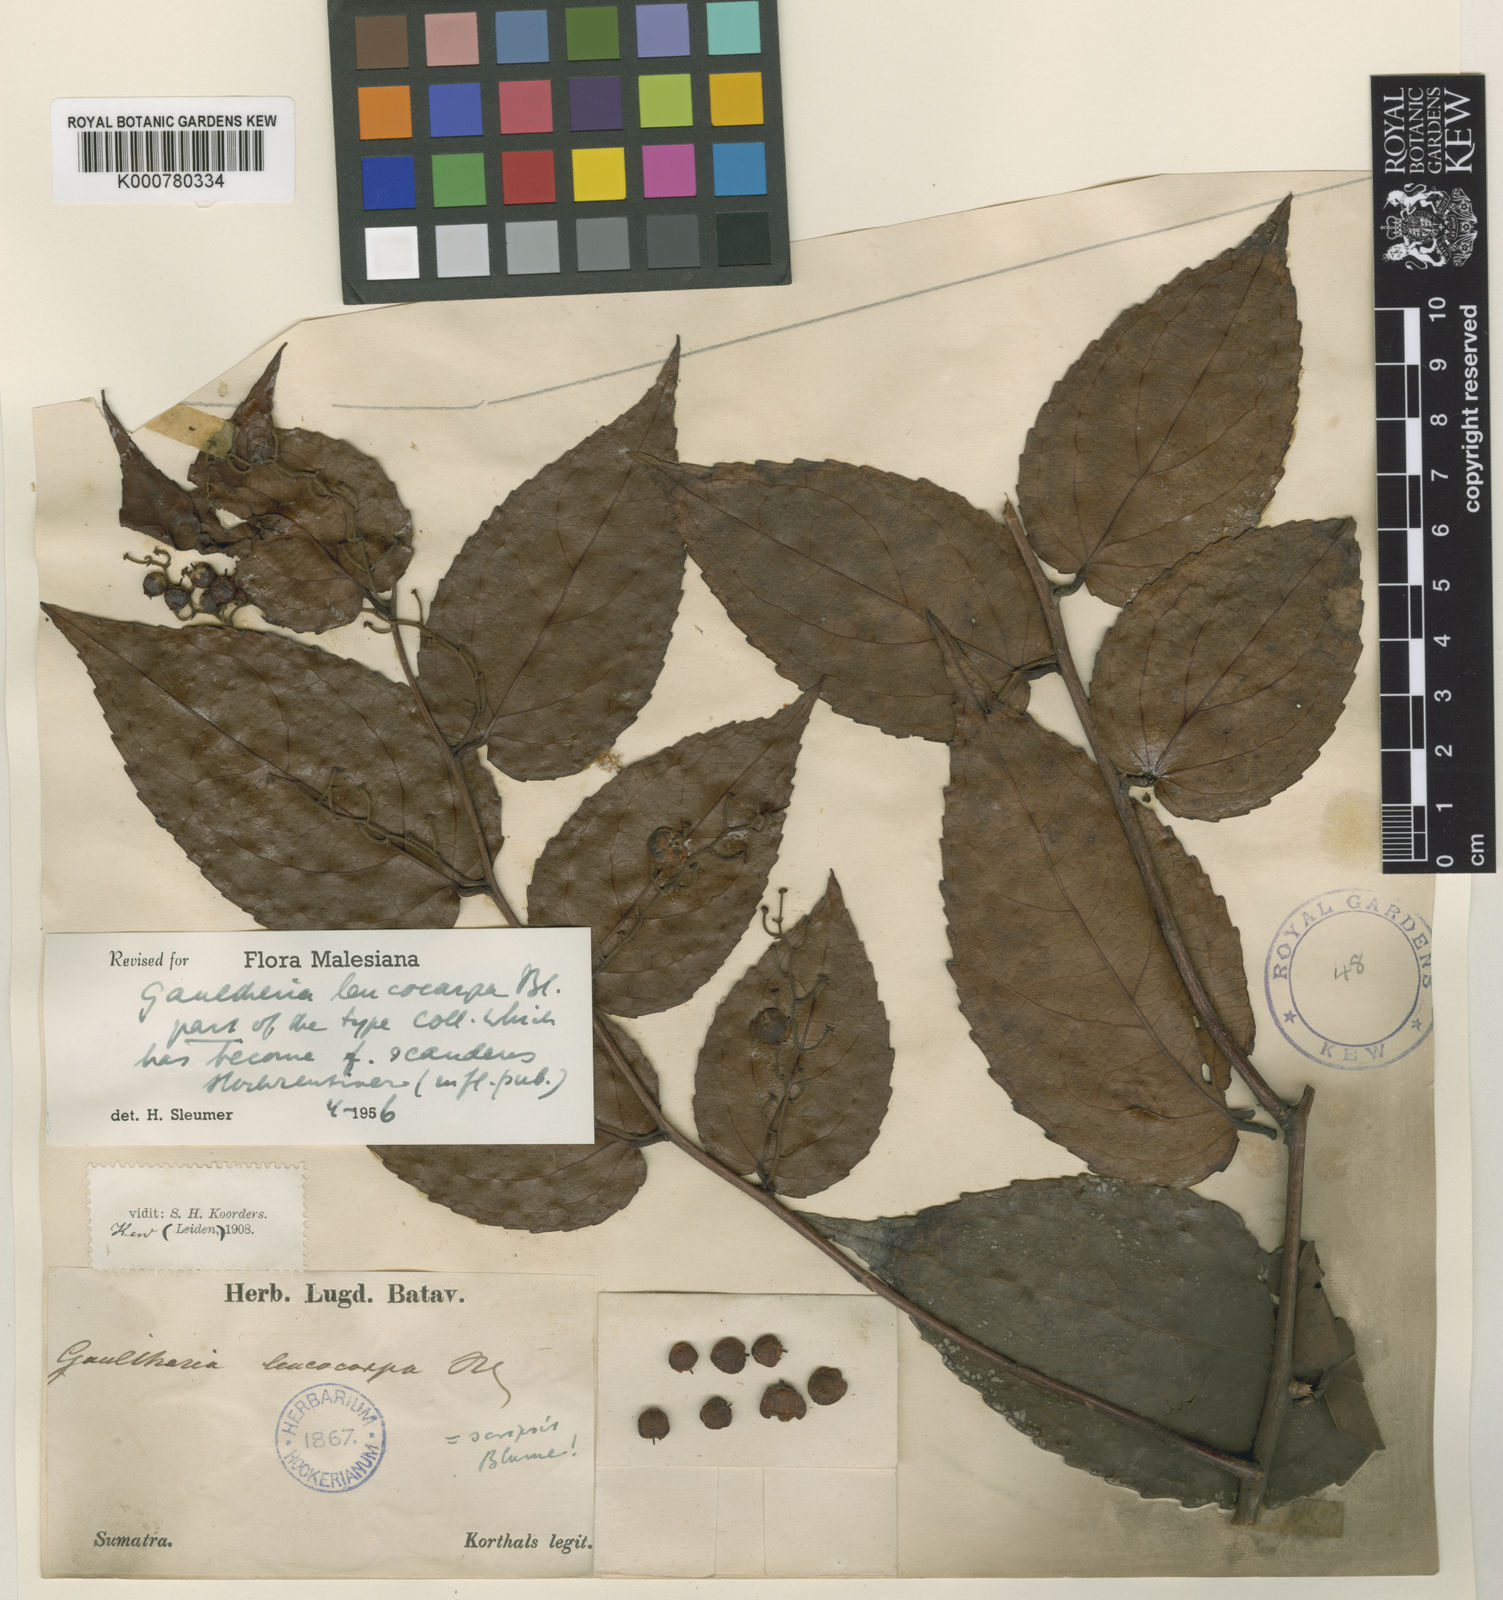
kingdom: Plantae
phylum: Tracheophyta
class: Magnoliopsida
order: Ericales
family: Ericaceae
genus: Gaultheria
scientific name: Gaultheria leucocarpa
